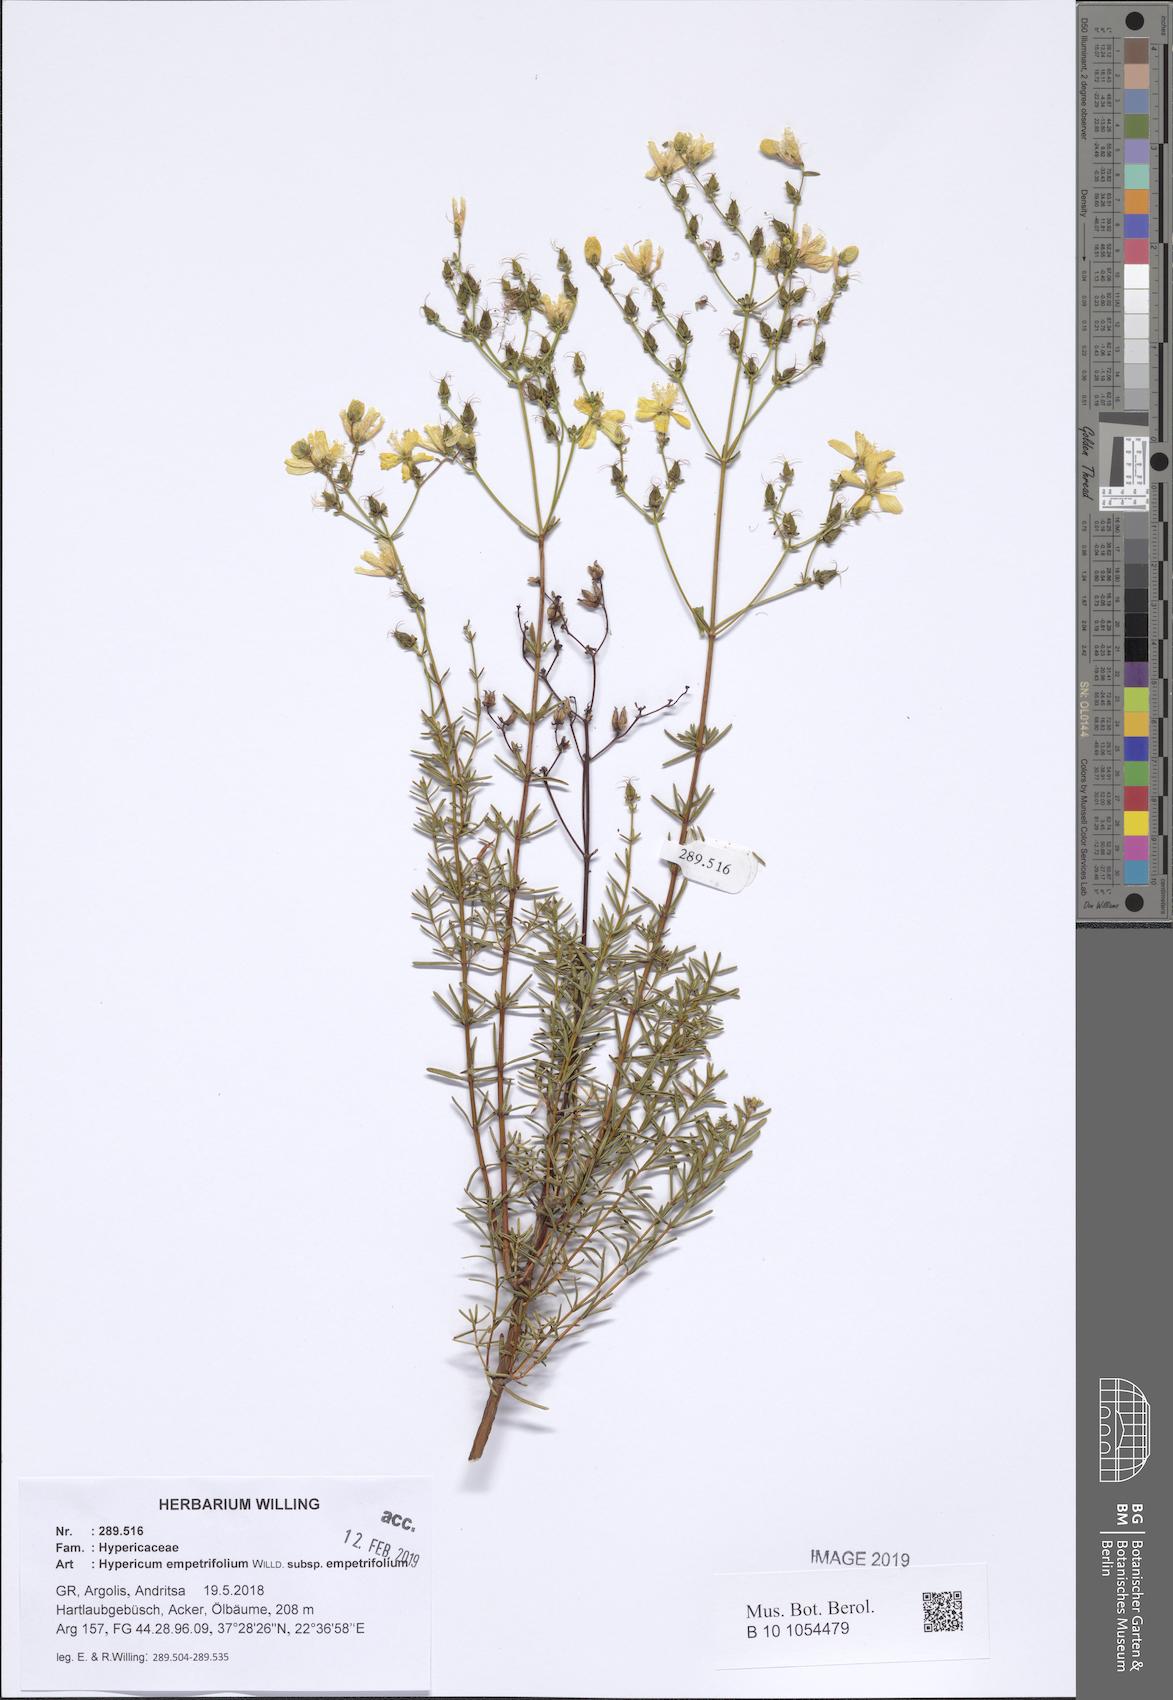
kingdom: Plantae
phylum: Tracheophyta
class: Magnoliopsida
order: Malpighiales
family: Hypericaceae
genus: Hypericum
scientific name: Hypericum empetrifolium
